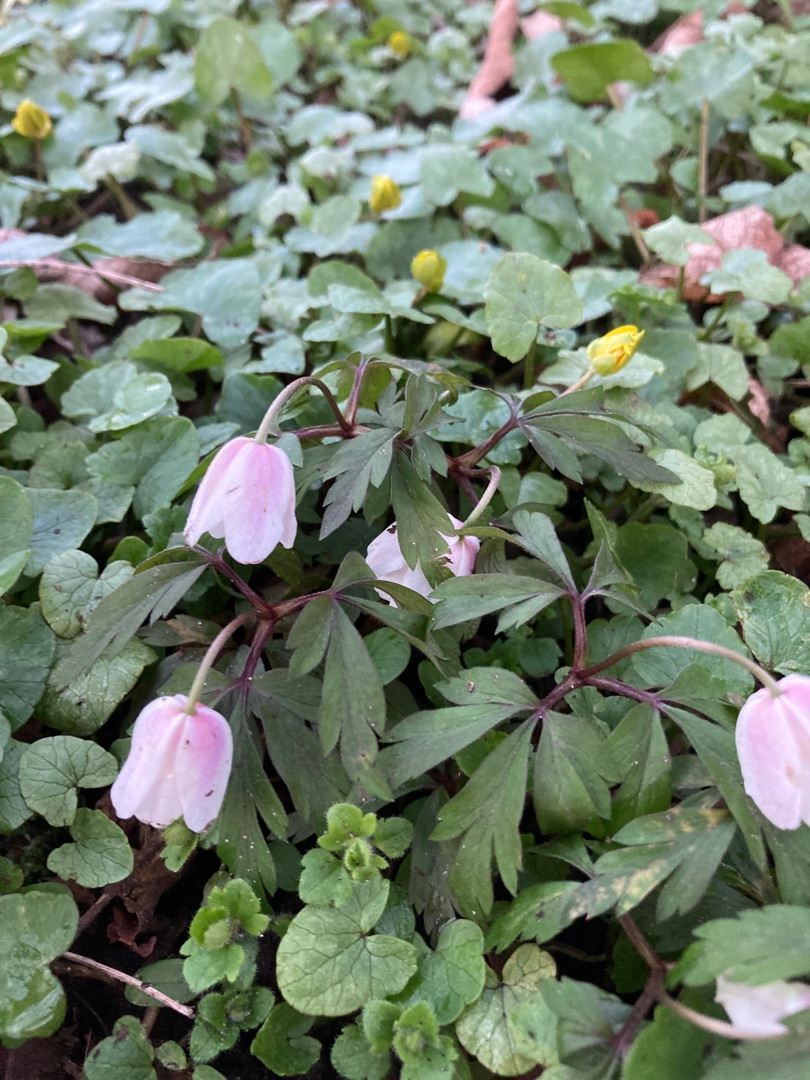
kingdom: Plantae
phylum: Tracheophyta
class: Magnoliopsida
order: Ranunculales
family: Ranunculaceae
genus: Anemone
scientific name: Anemone nemorosa
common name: Hvid anemone
